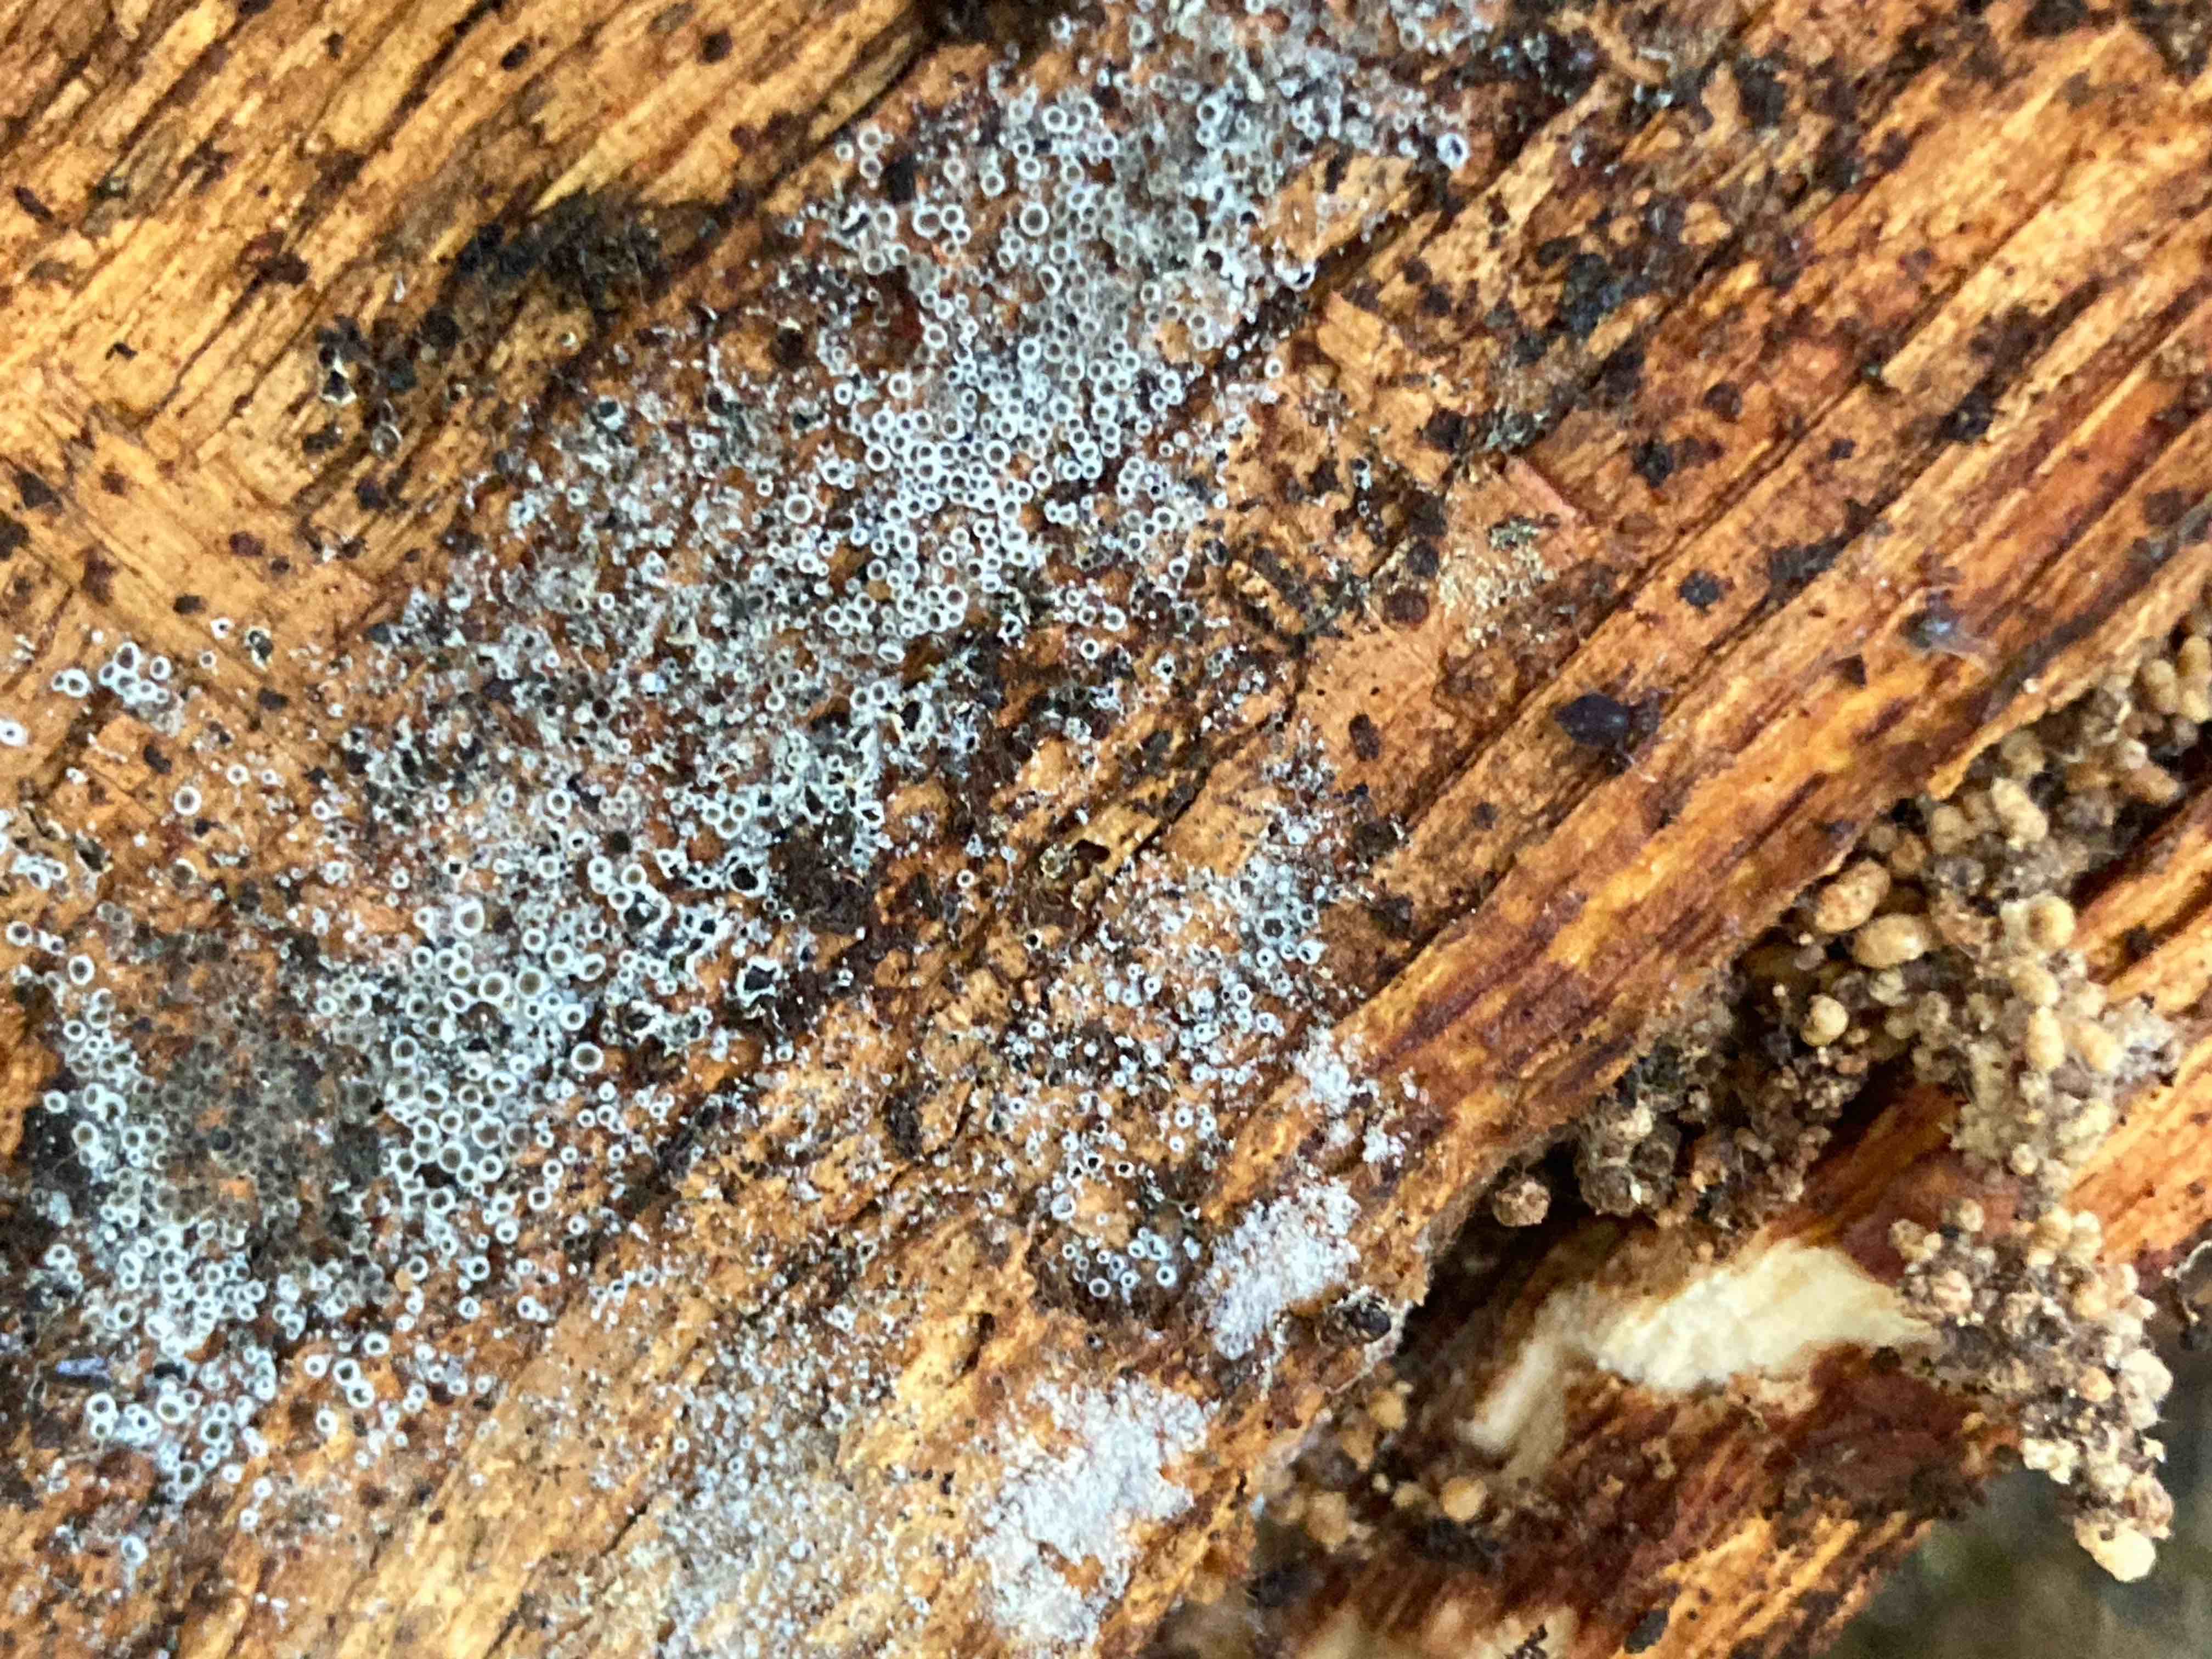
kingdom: Fungi
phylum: Ascomycota
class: Leotiomycetes
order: Helotiales
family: Arachnopezizaceae
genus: Eriopezia
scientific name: Eriopezia caesia
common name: ege-spindskive
